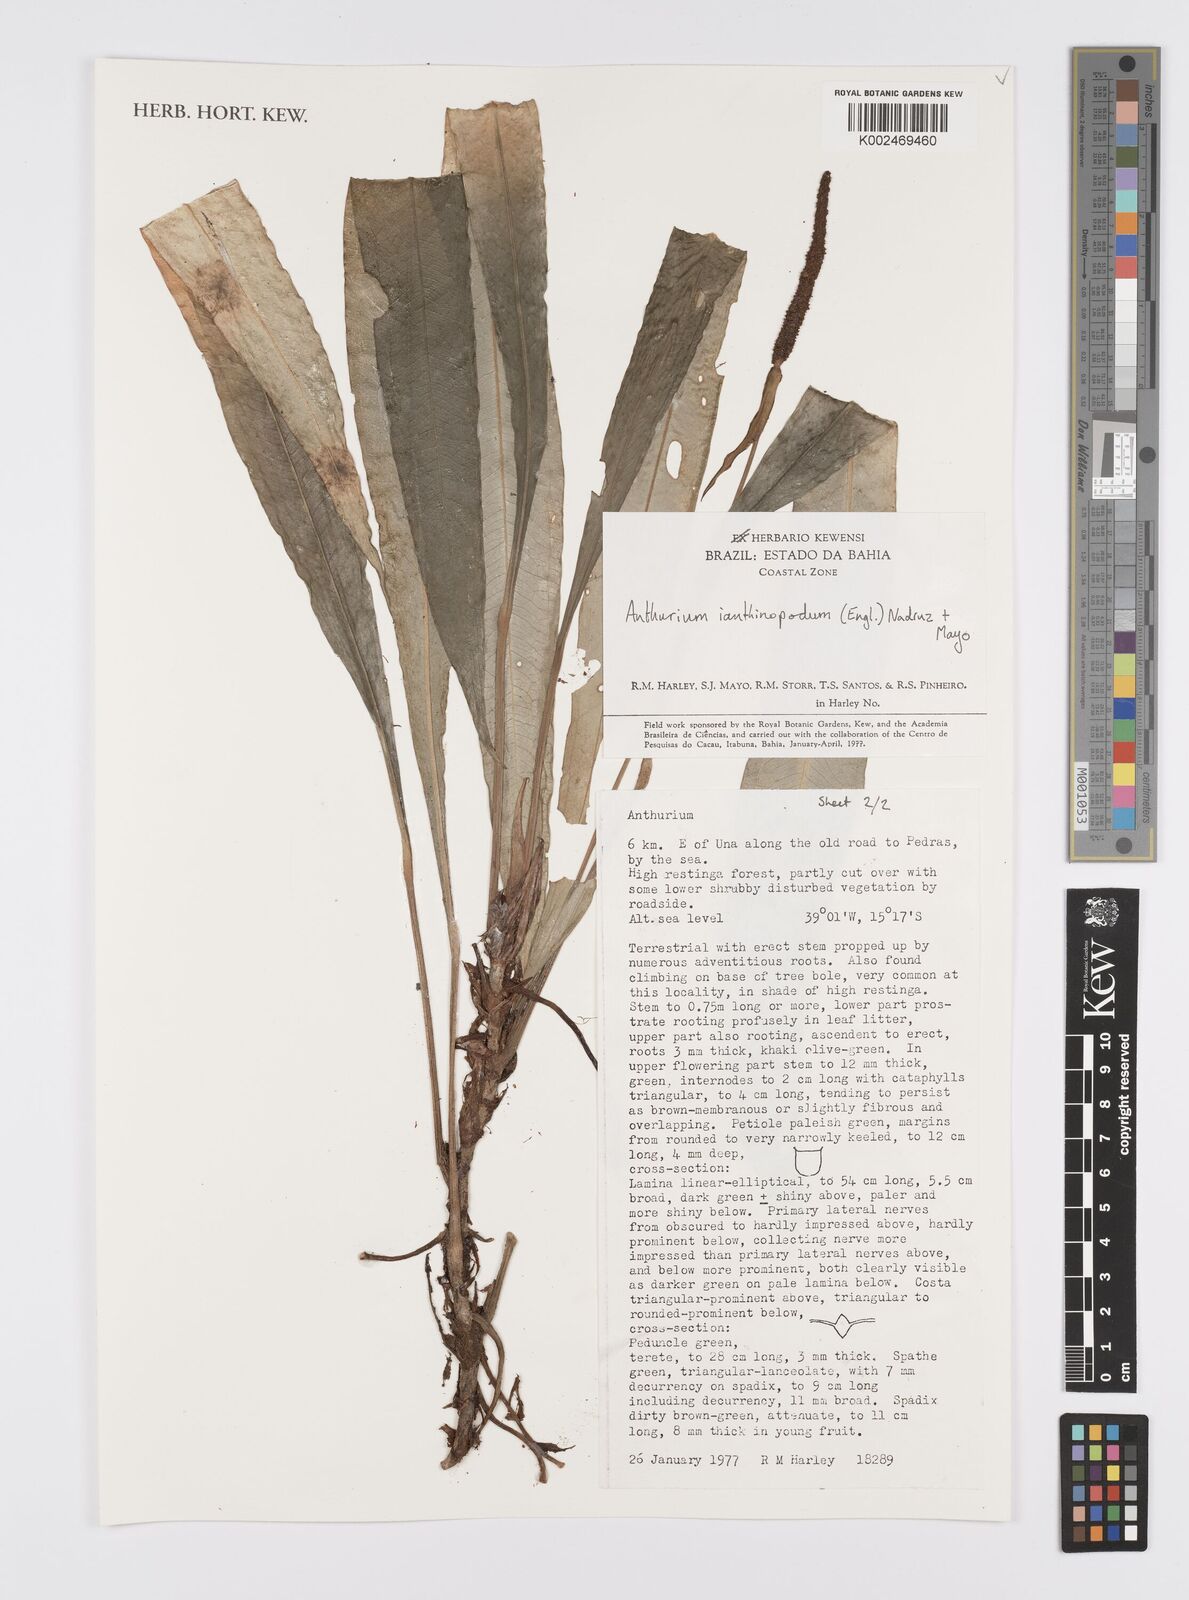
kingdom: Plantae
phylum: Tracheophyta
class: Liliopsida
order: Alismatales
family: Araceae
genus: Anthurium
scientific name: Anthurium ianthinopodum
